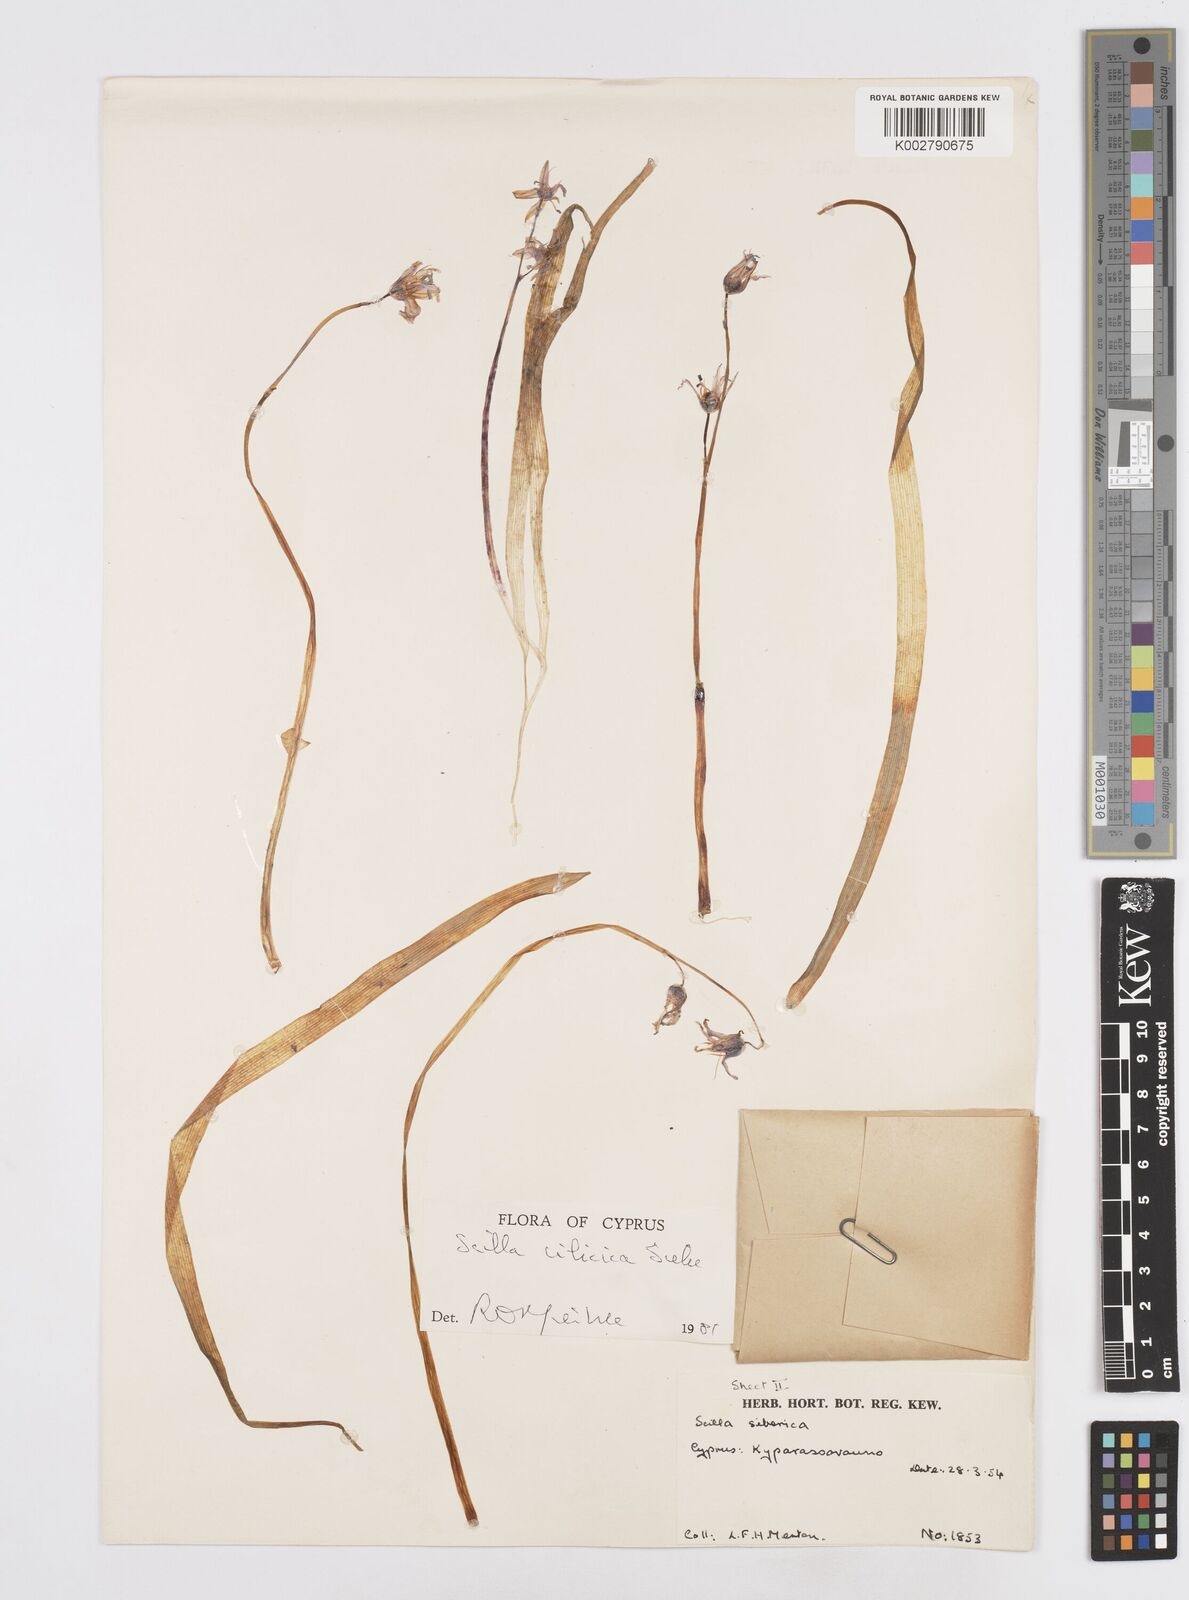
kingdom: Plantae
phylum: Tracheophyta
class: Liliopsida
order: Asparagales
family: Asparagaceae
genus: Scilla
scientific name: Scilla siberica
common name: Siberian squill
